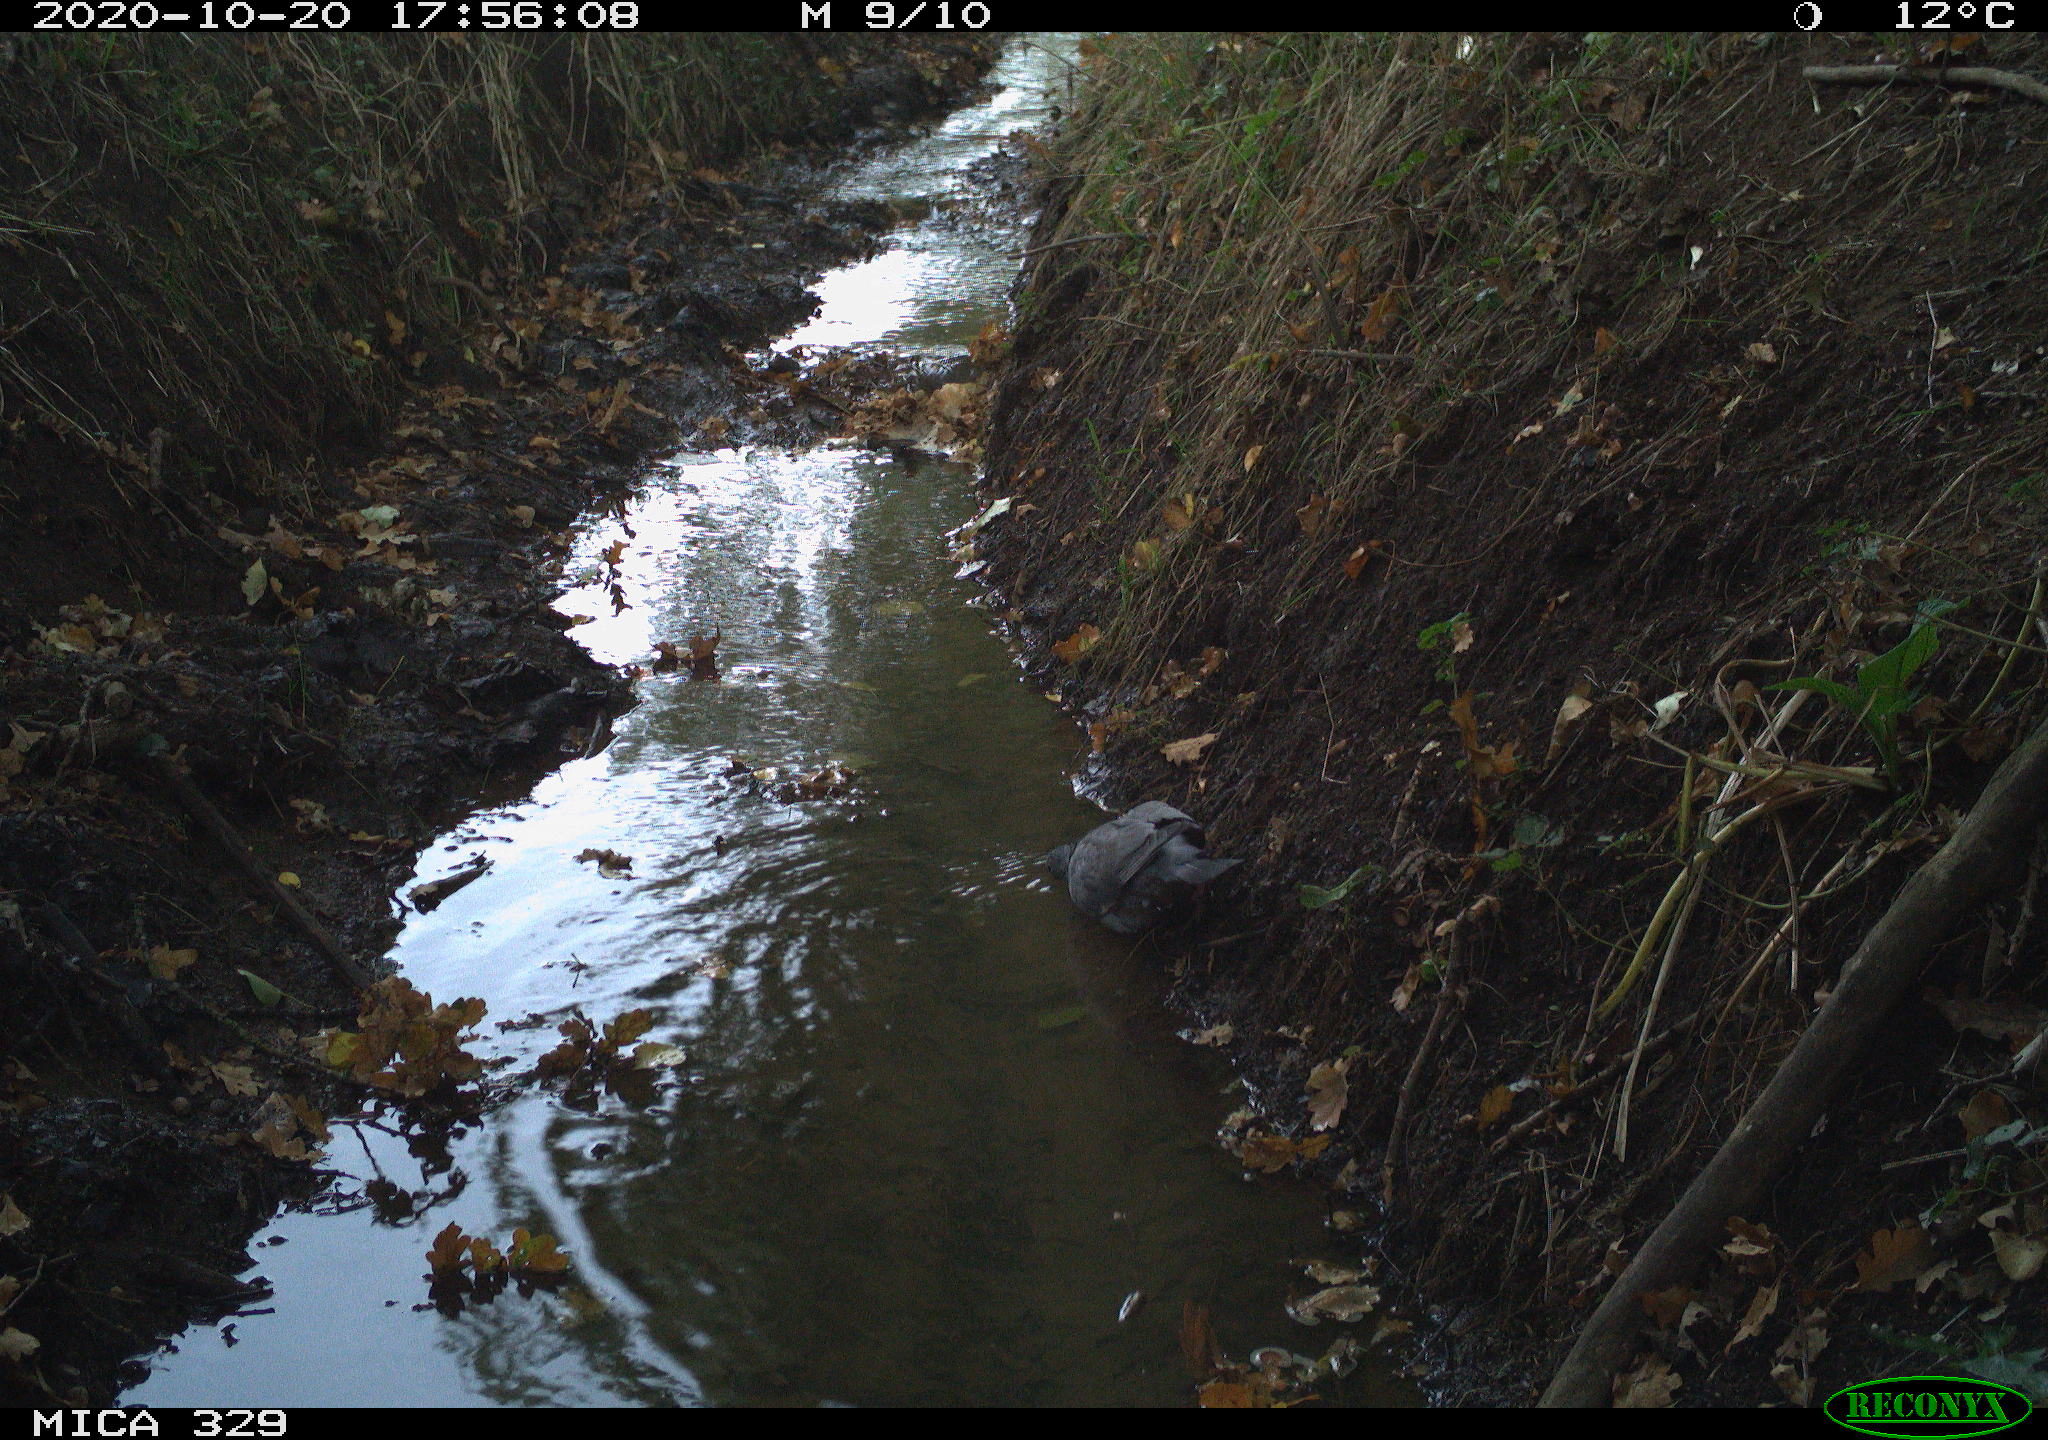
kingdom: Animalia
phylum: Chordata
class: Aves
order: Columbiformes
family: Columbidae
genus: Columba
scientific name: Columba palumbus
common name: Common wood pigeon
